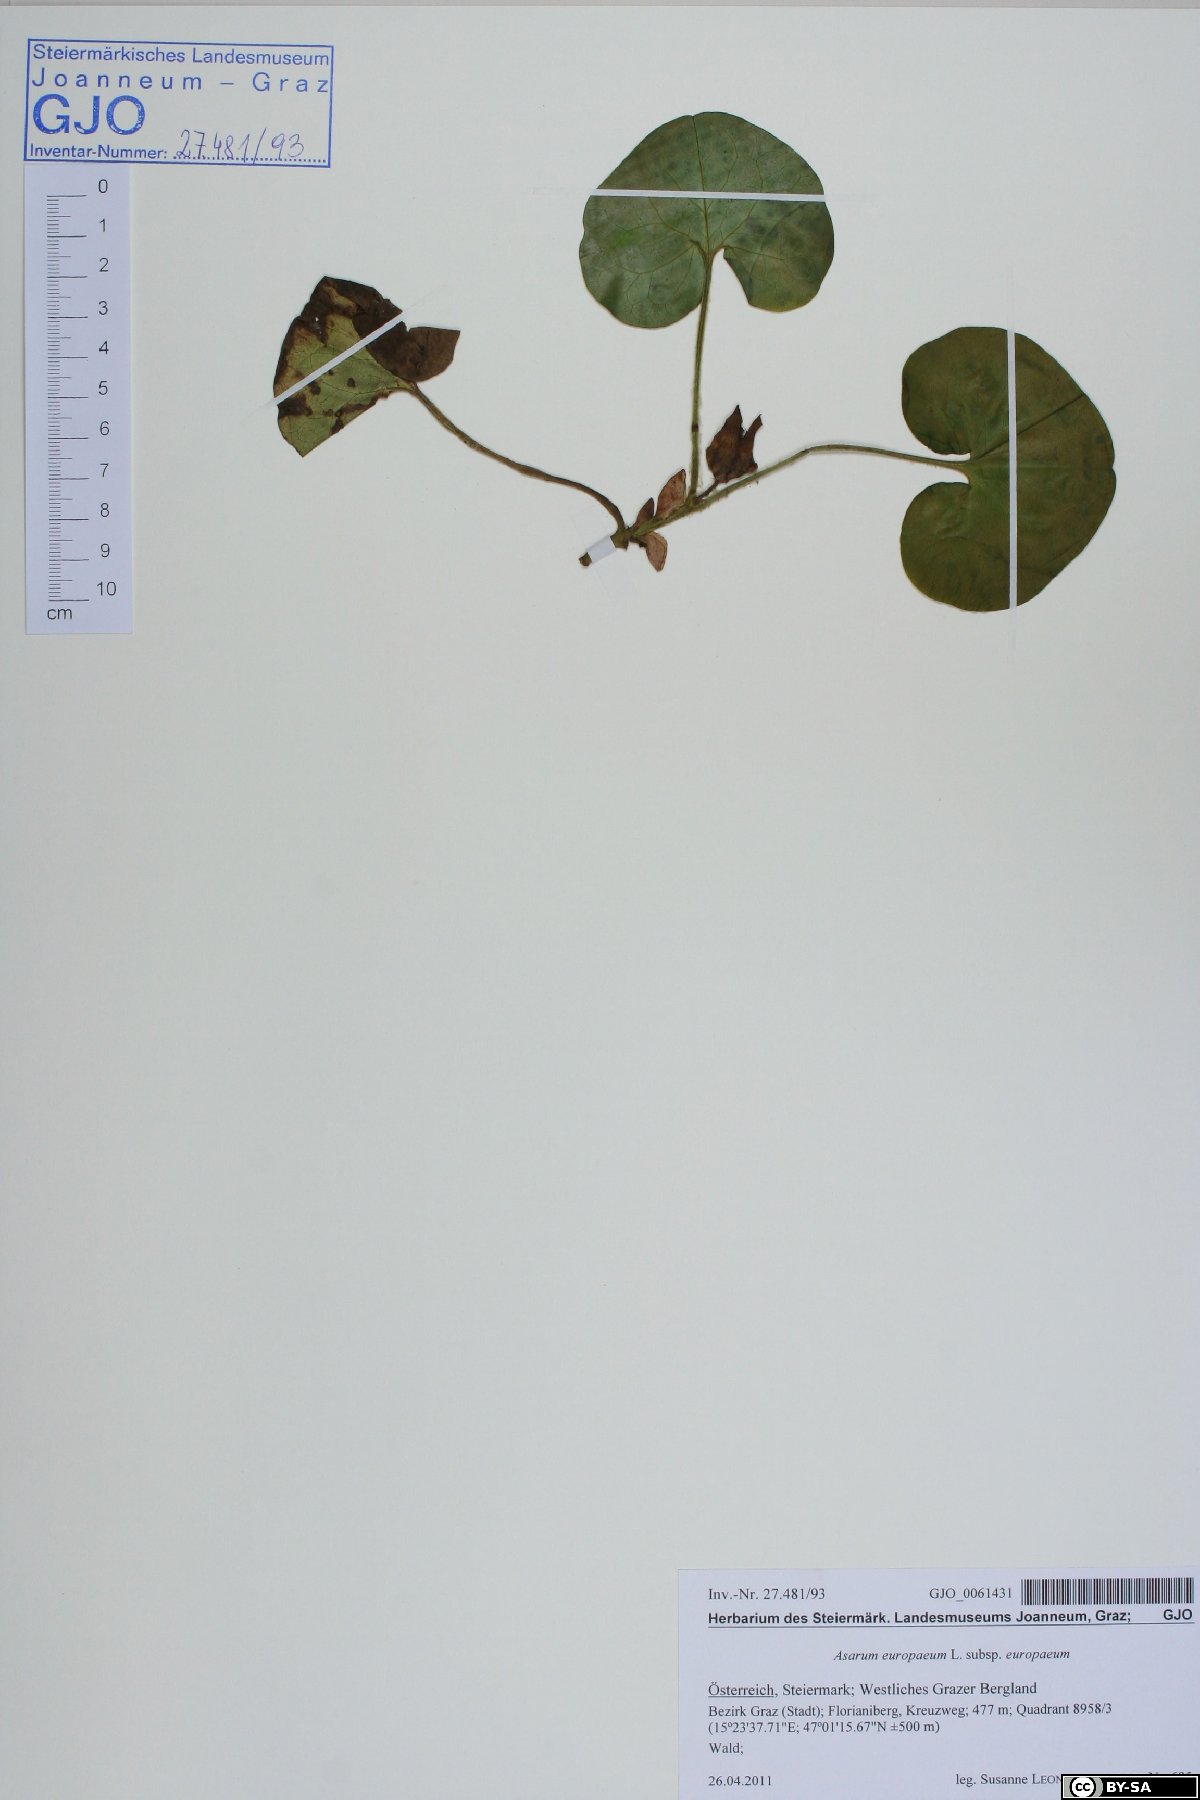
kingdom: Plantae
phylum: Tracheophyta
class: Magnoliopsida
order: Piperales
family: Aristolochiaceae
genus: Asarum
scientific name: Asarum europaeum
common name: Asarabacca
